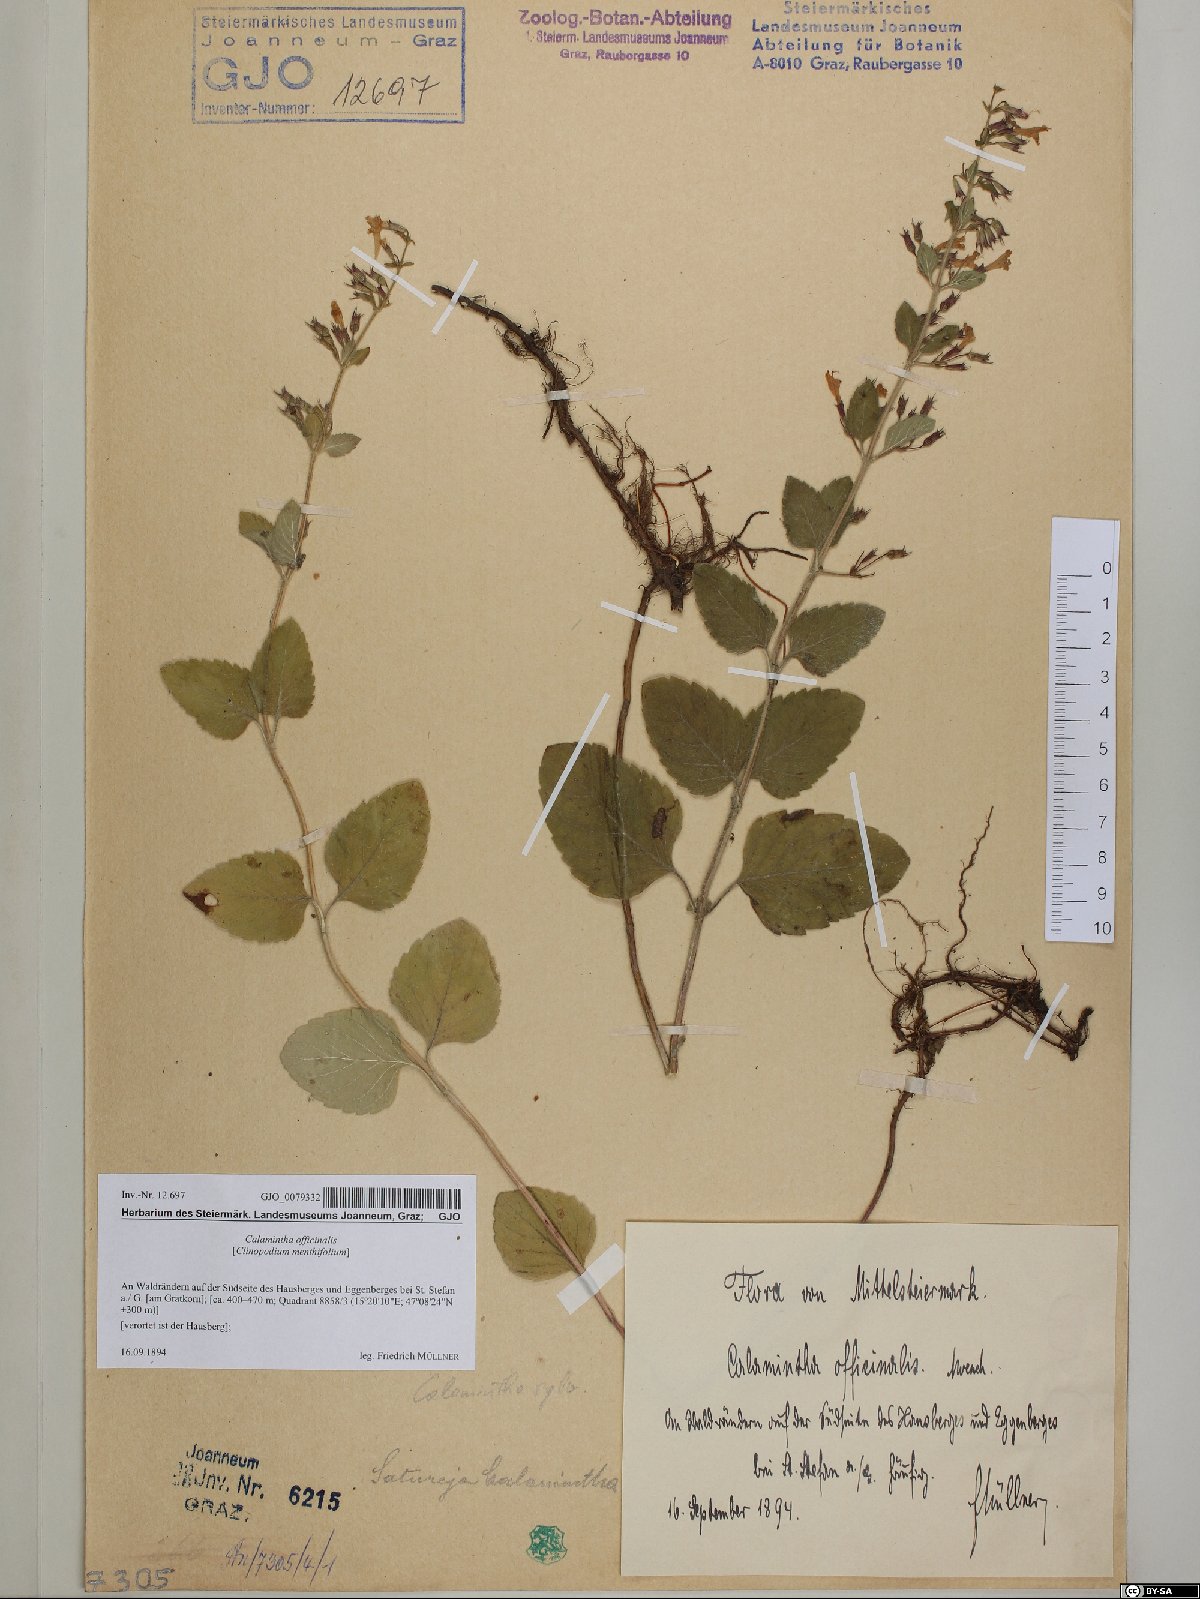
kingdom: Plantae
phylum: Tracheophyta
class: Magnoliopsida
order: Lamiales
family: Lamiaceae
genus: Clinopodium
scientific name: Clinopodium nepeta
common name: Lesser calamint
